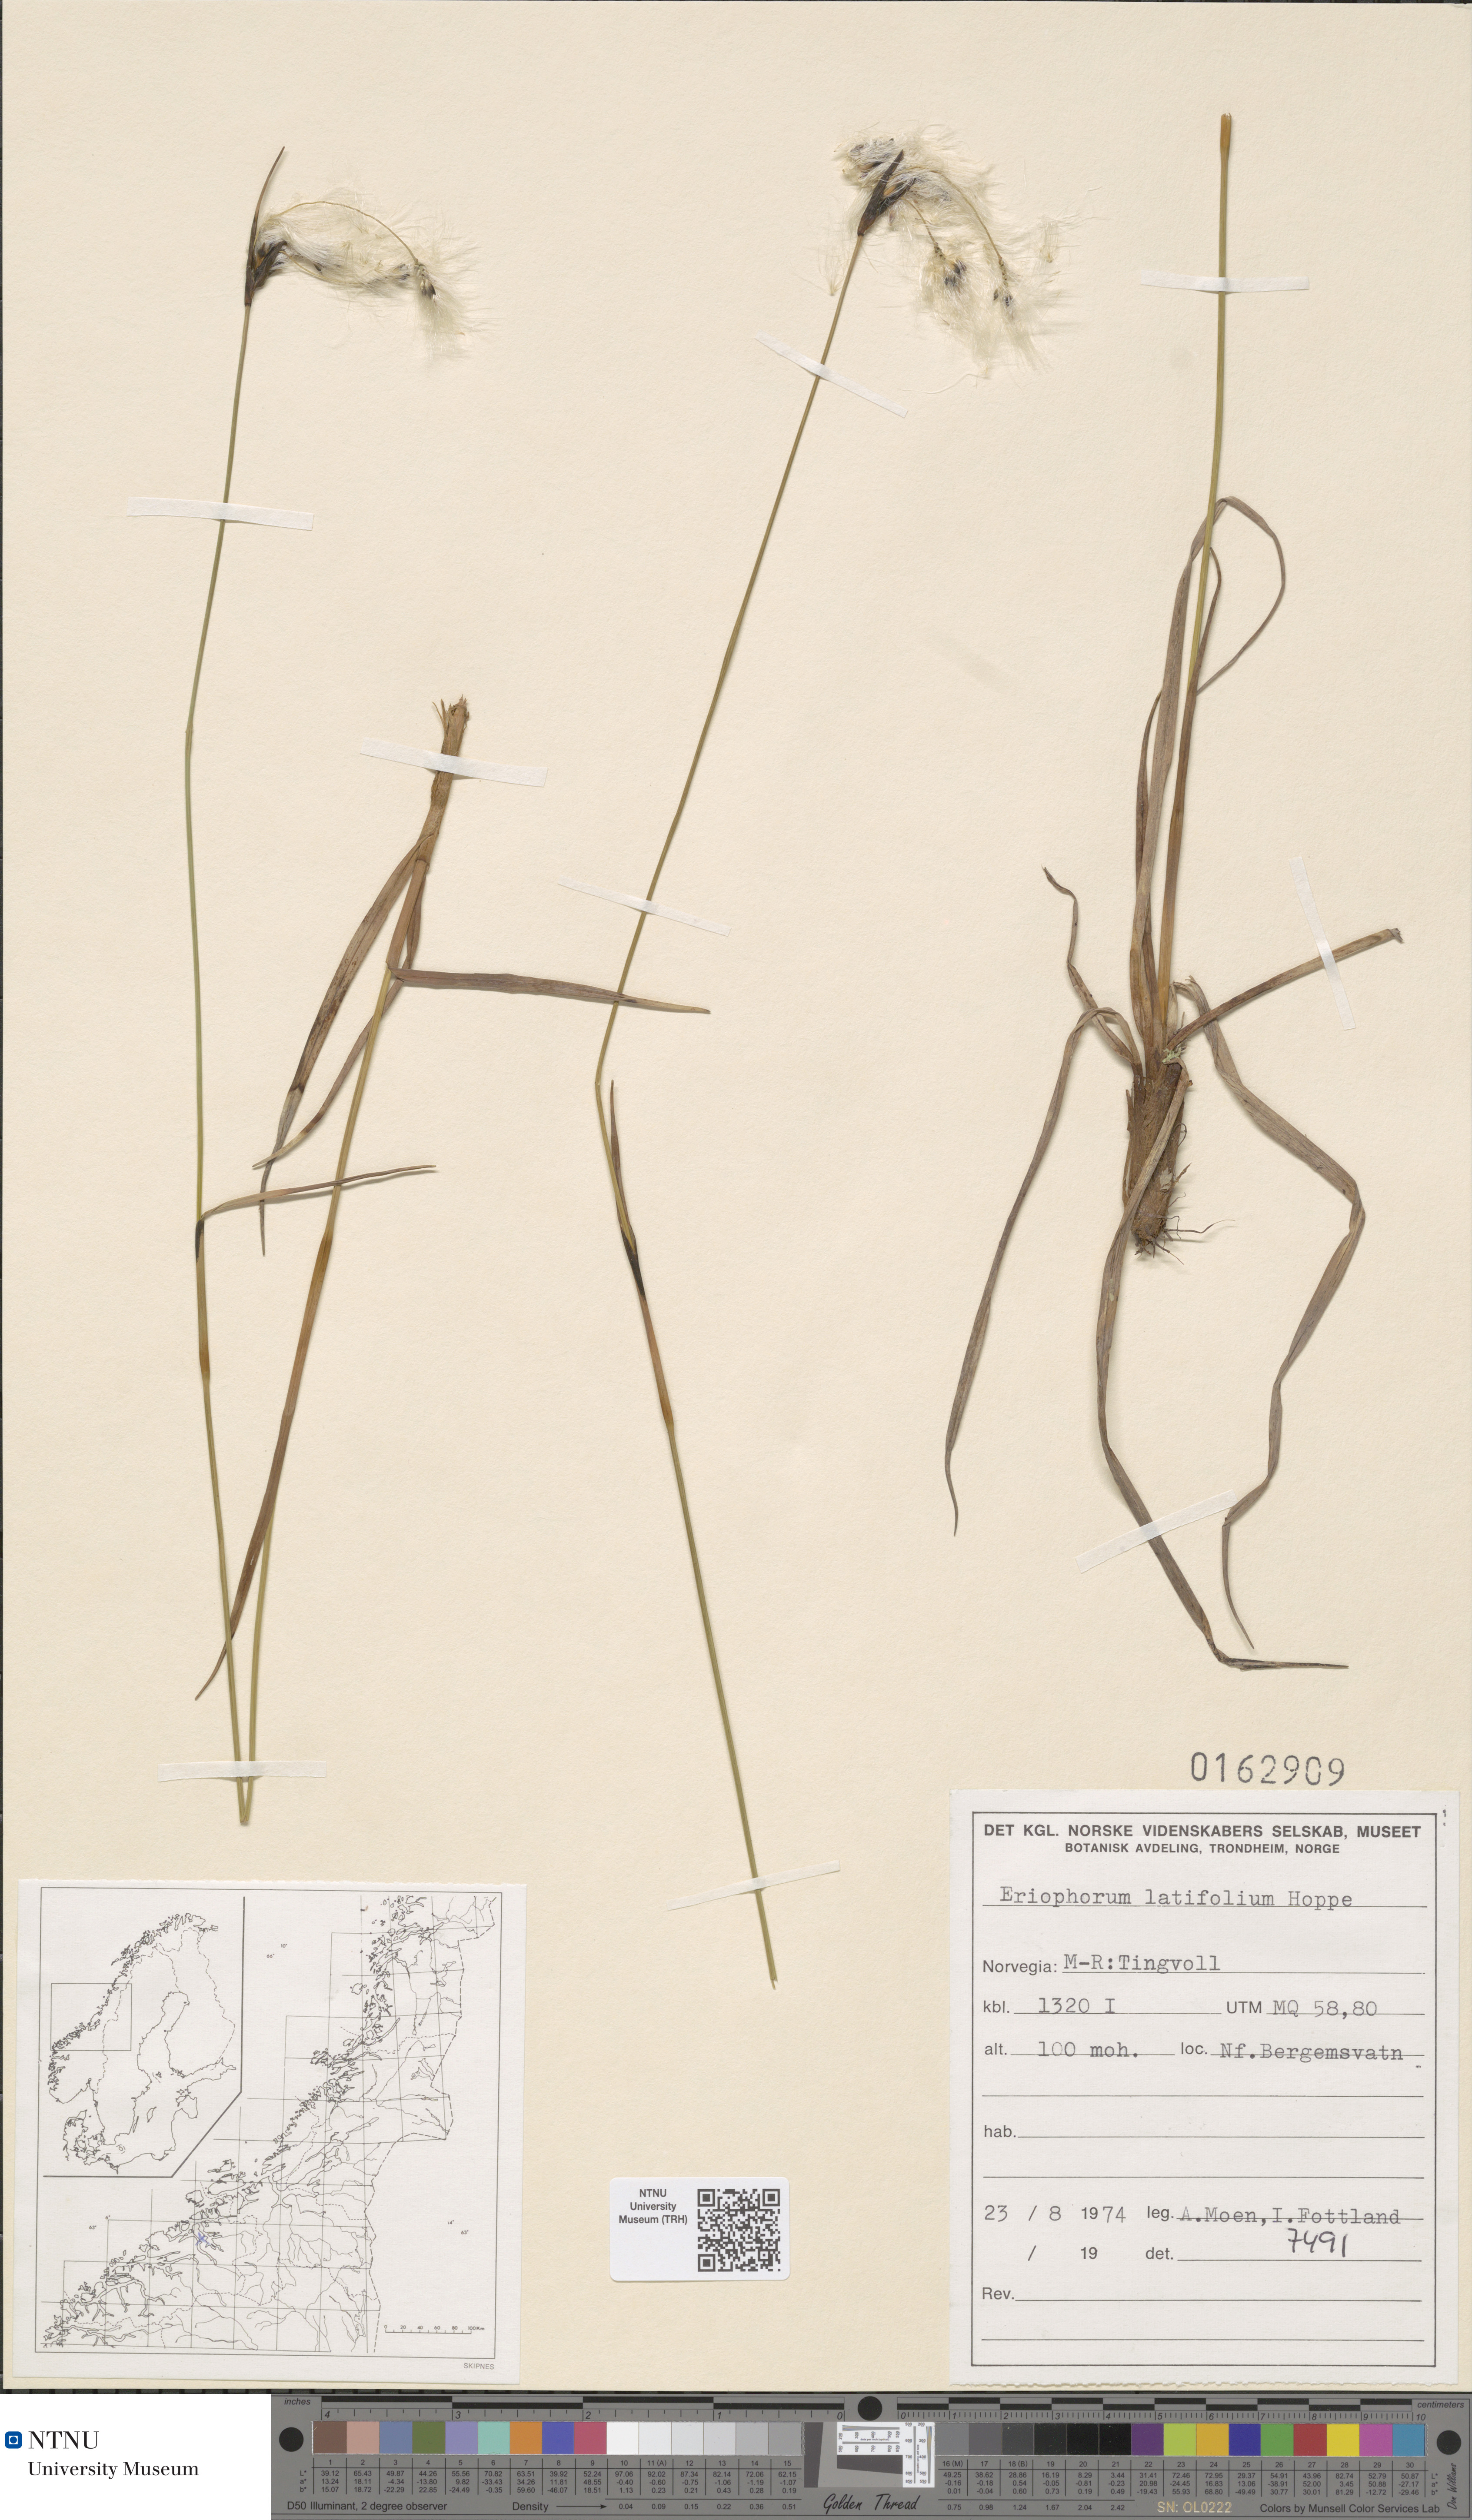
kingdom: Plantae
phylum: Tracheophyta
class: Liliopsida
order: Poales
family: Cyperaceae
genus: Eriophorum
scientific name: Eriophorum latifolium
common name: Broad-leaved cottongrass
